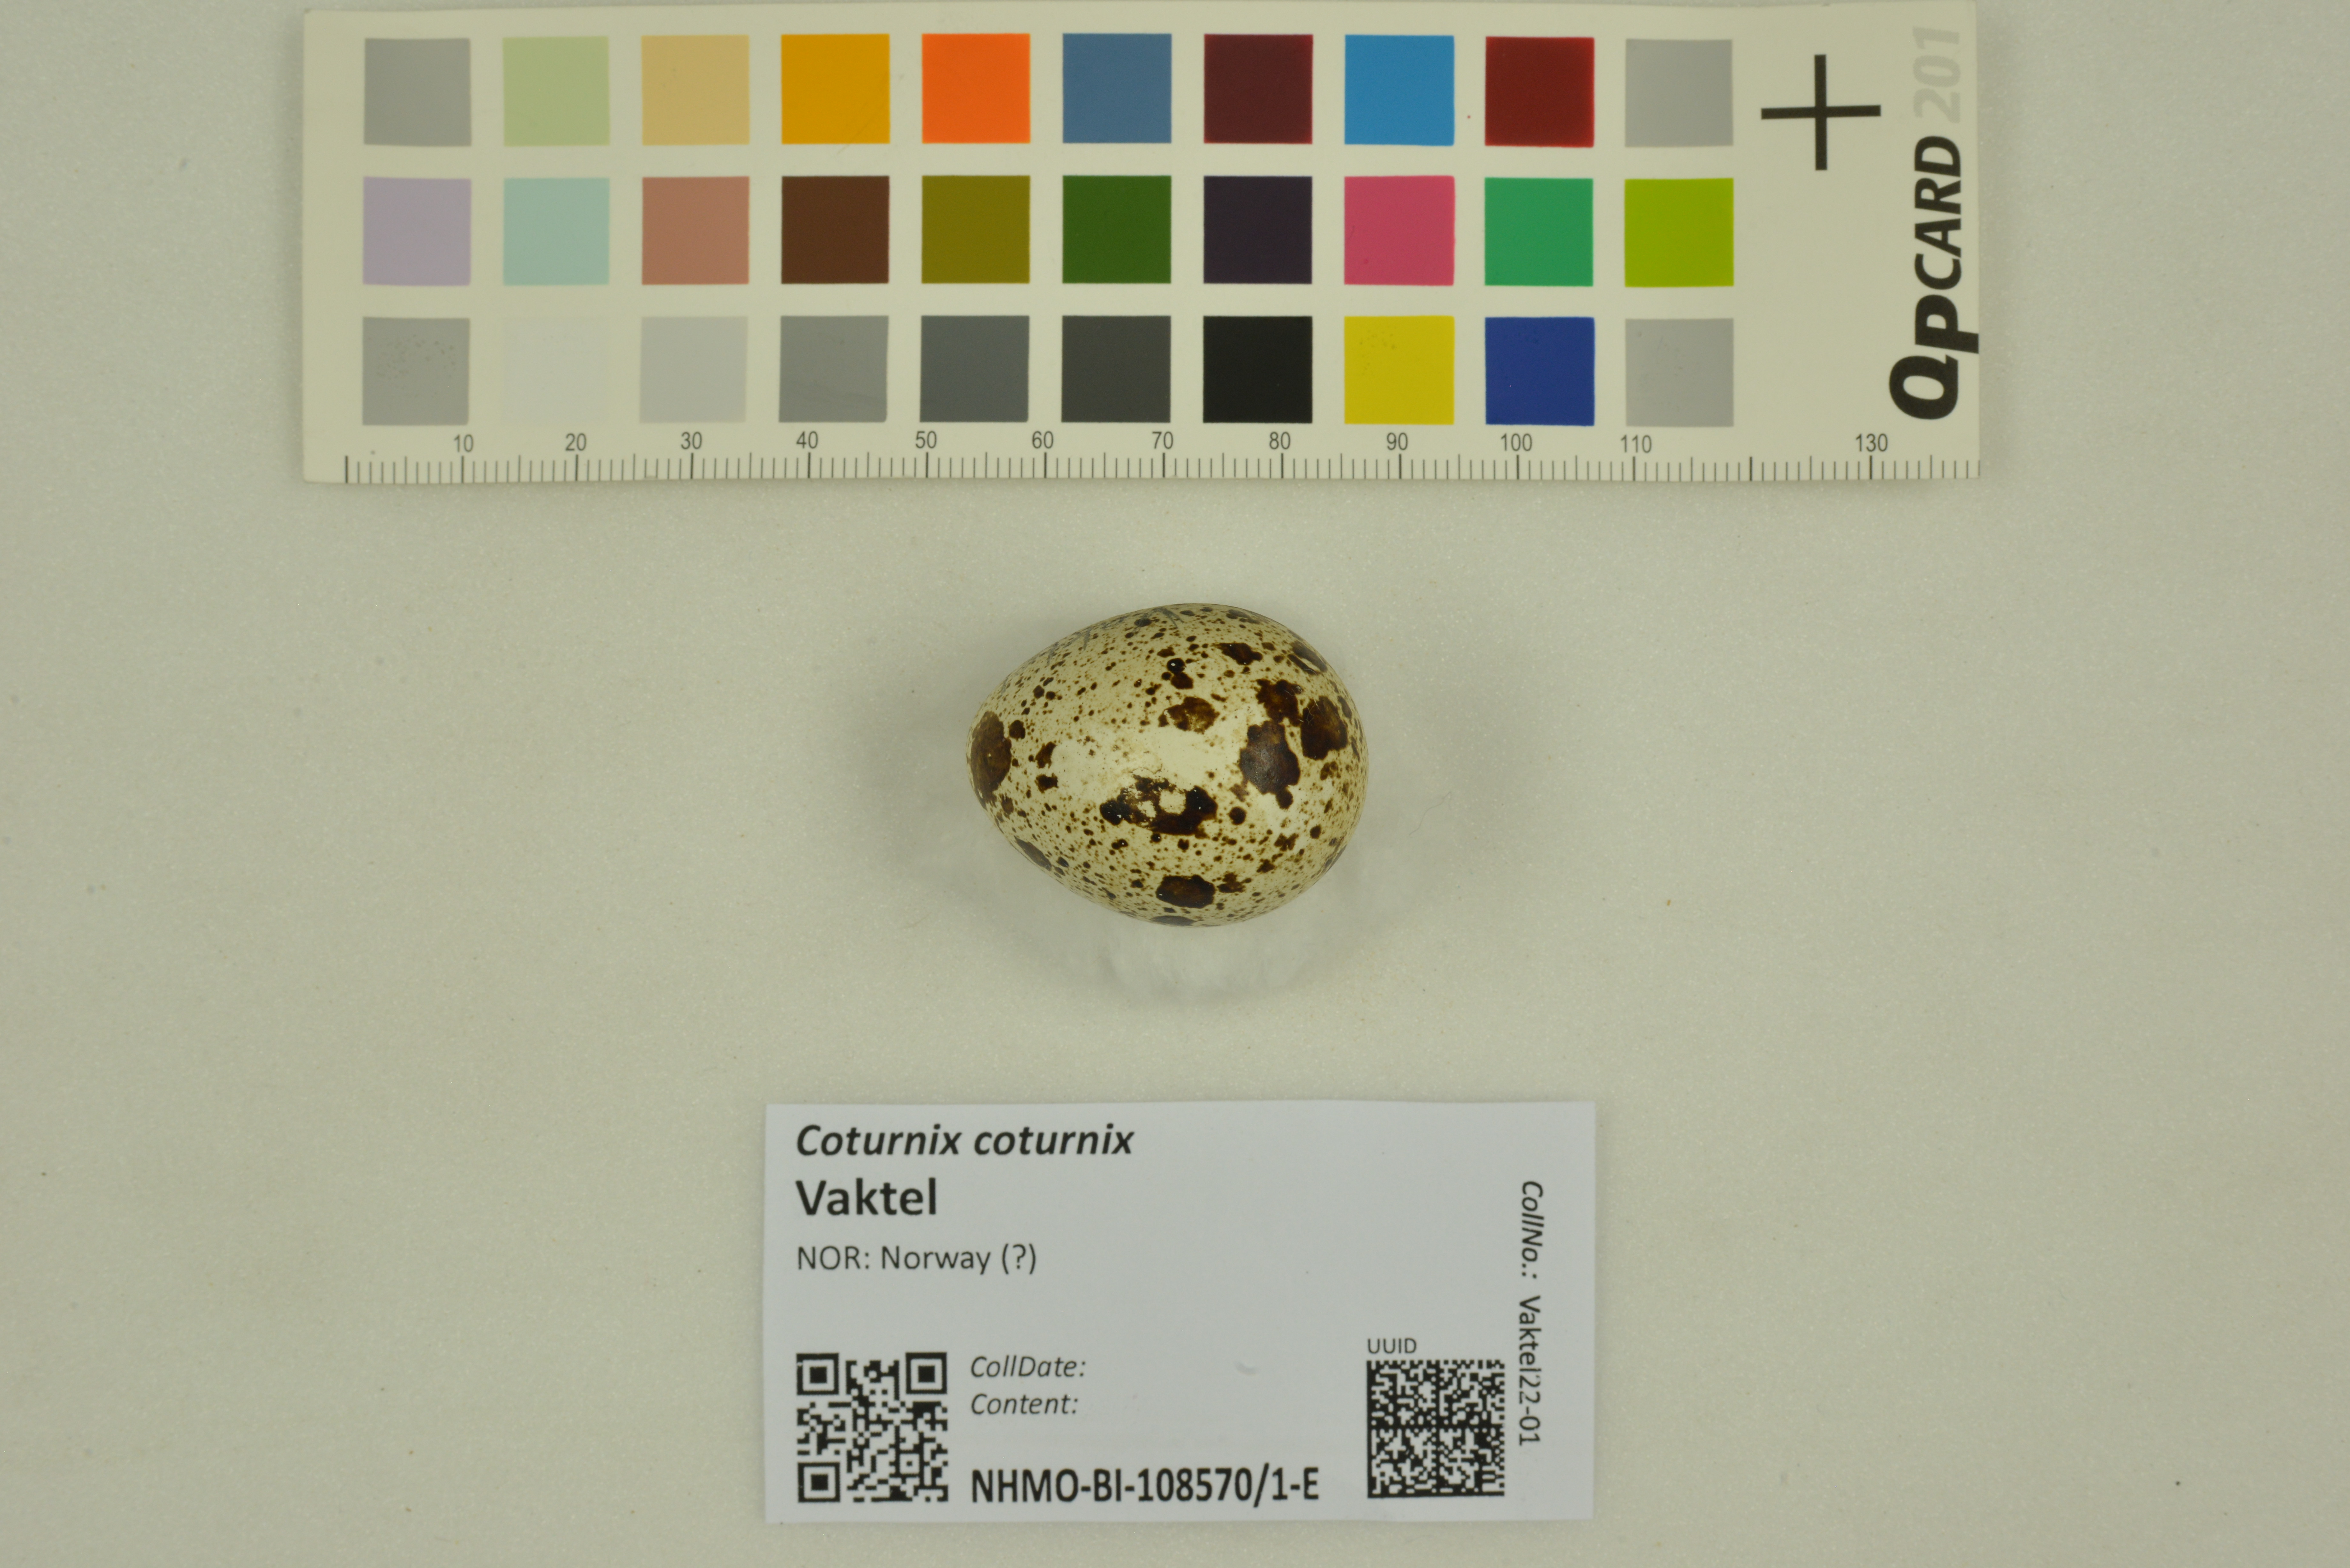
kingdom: Animalia
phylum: Chordata
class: Aves
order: Galliformes
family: Phasianidae
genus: Coturnix
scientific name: Coturnix coturnix
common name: Common quail
